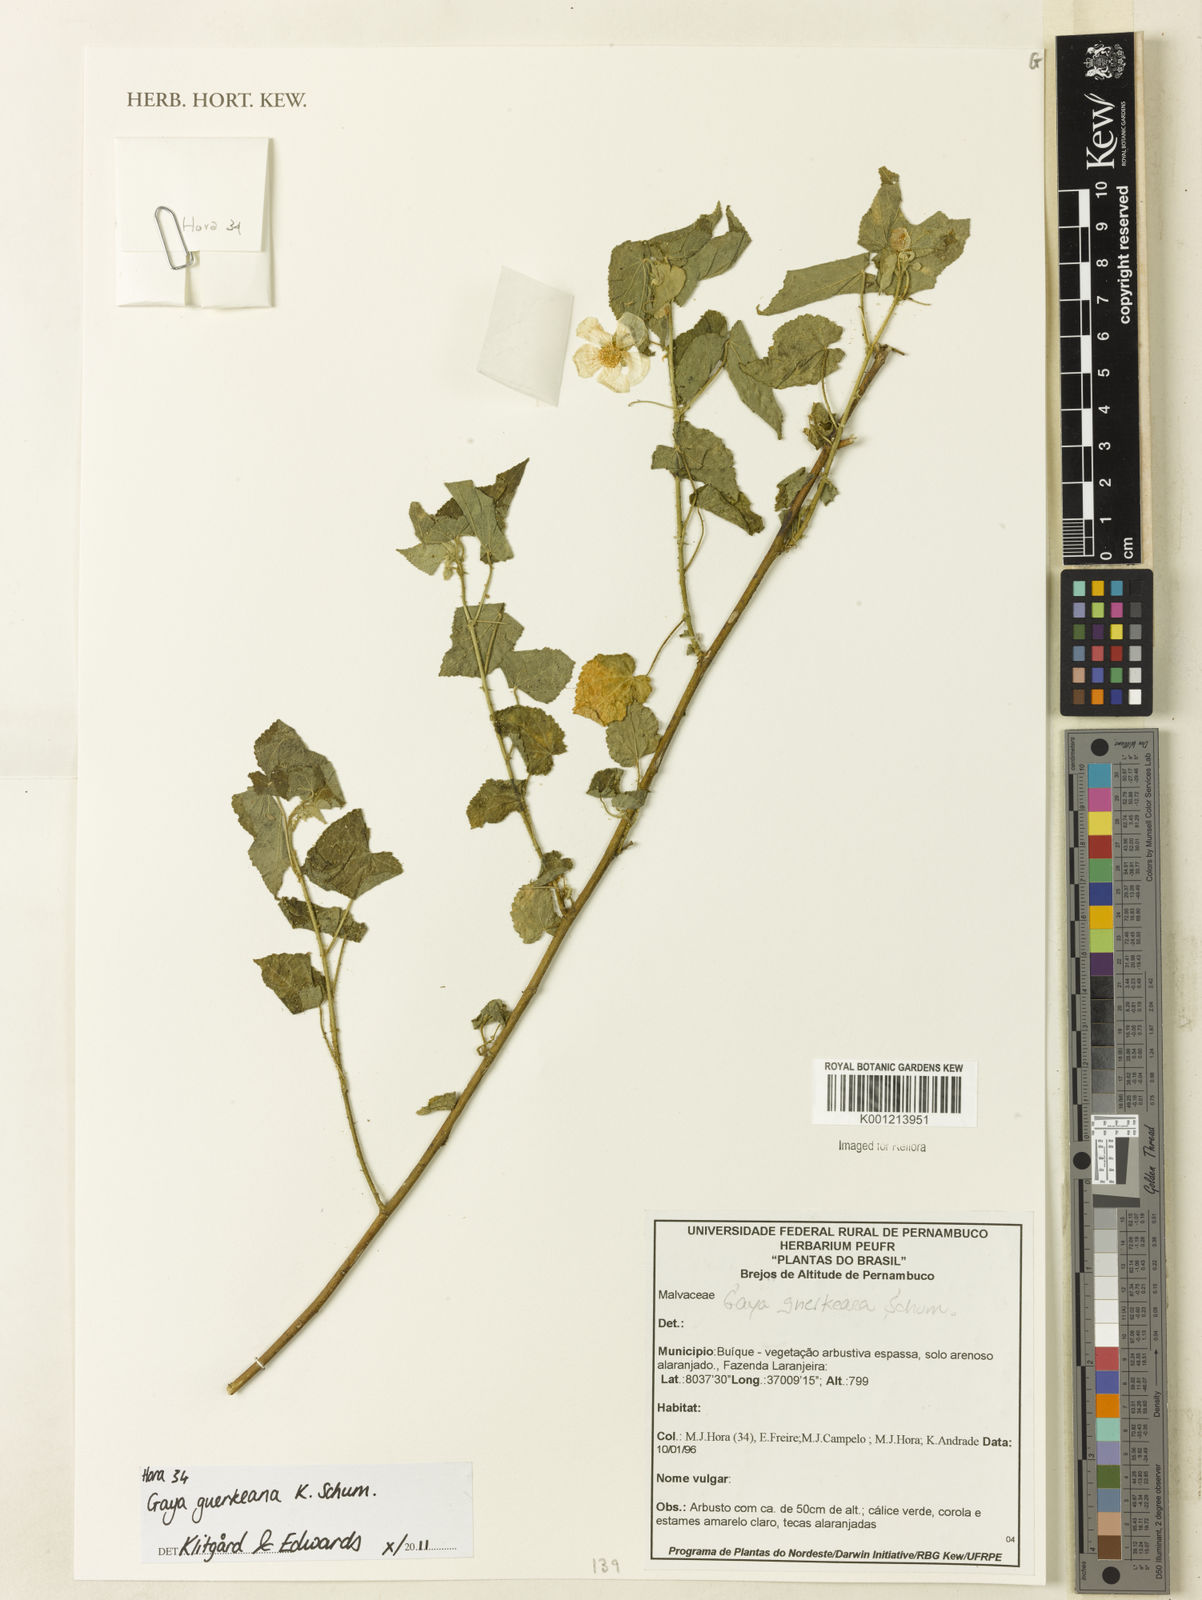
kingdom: Plantae
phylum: Tracheophyta
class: Magnoliopsida
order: Malvales
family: Malvaceae
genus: Gaya
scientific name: Gaya guerkeana
